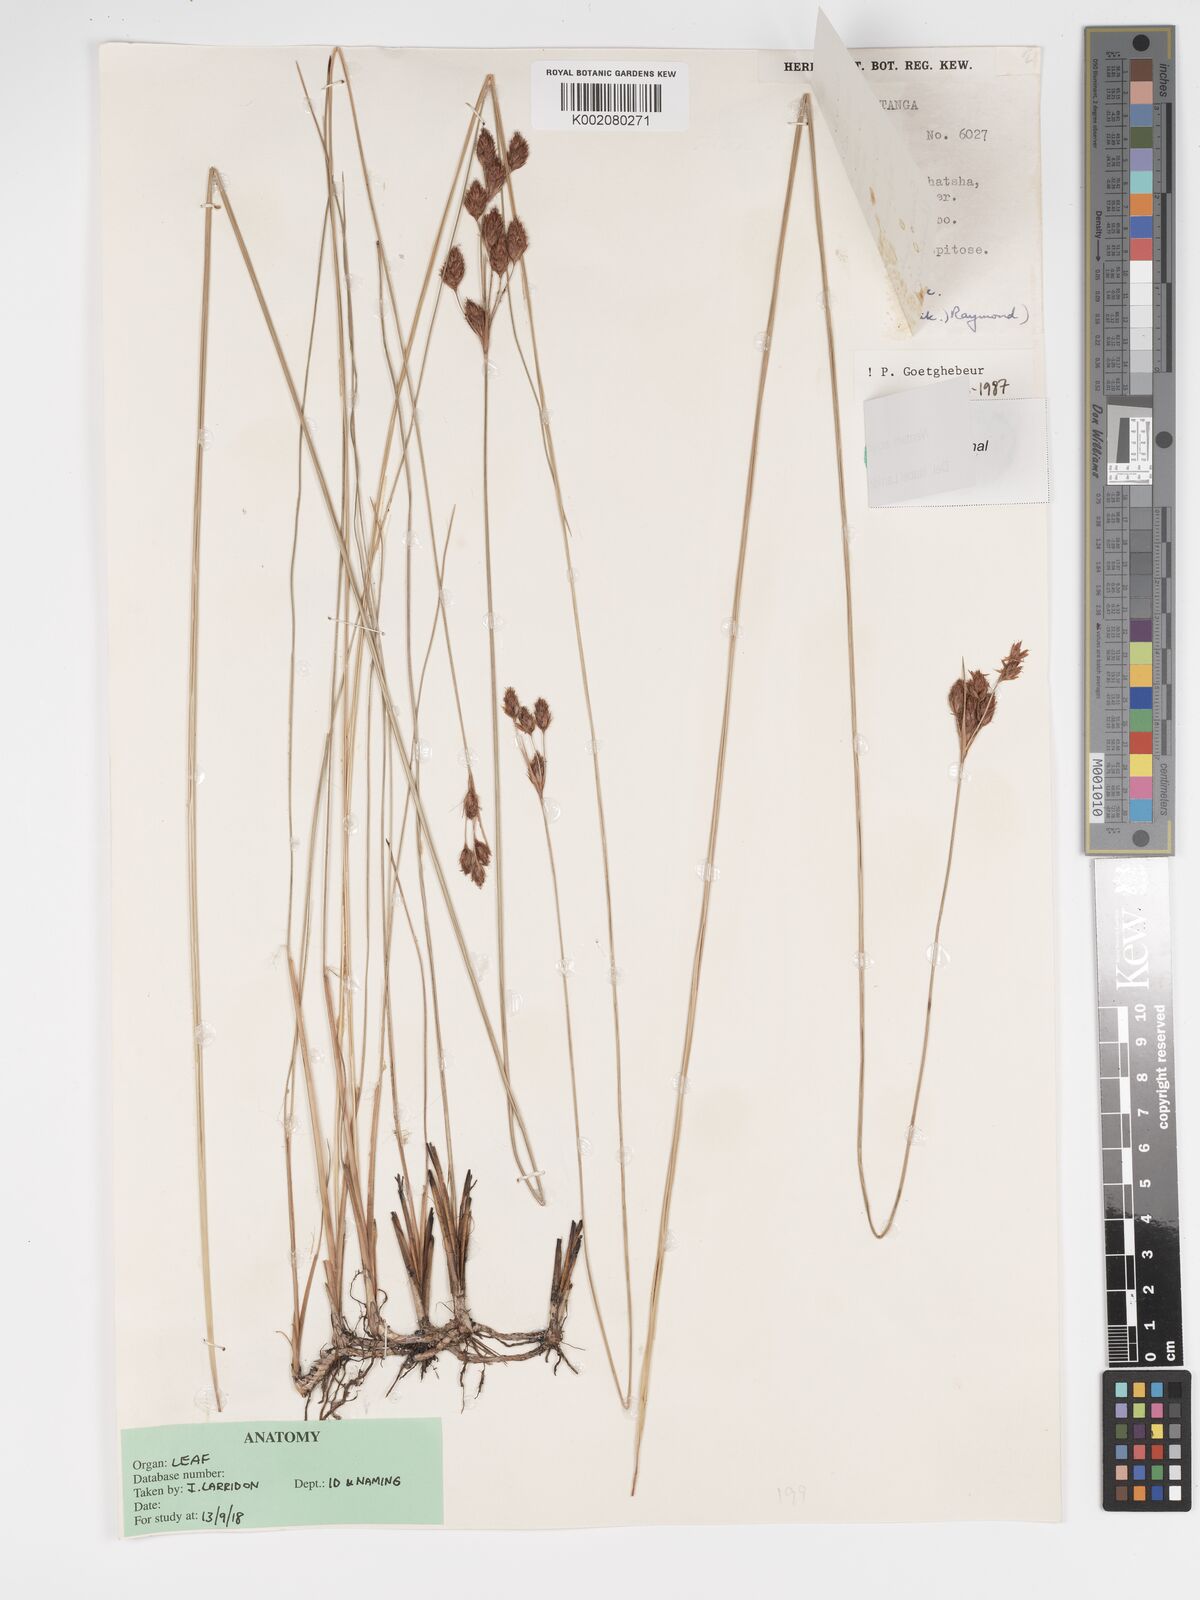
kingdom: Plantae
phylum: Tracheophyta
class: Liliopsida
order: Poales
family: Cyperaceae
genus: Bulbostylis
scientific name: Bulbostylis equitans
